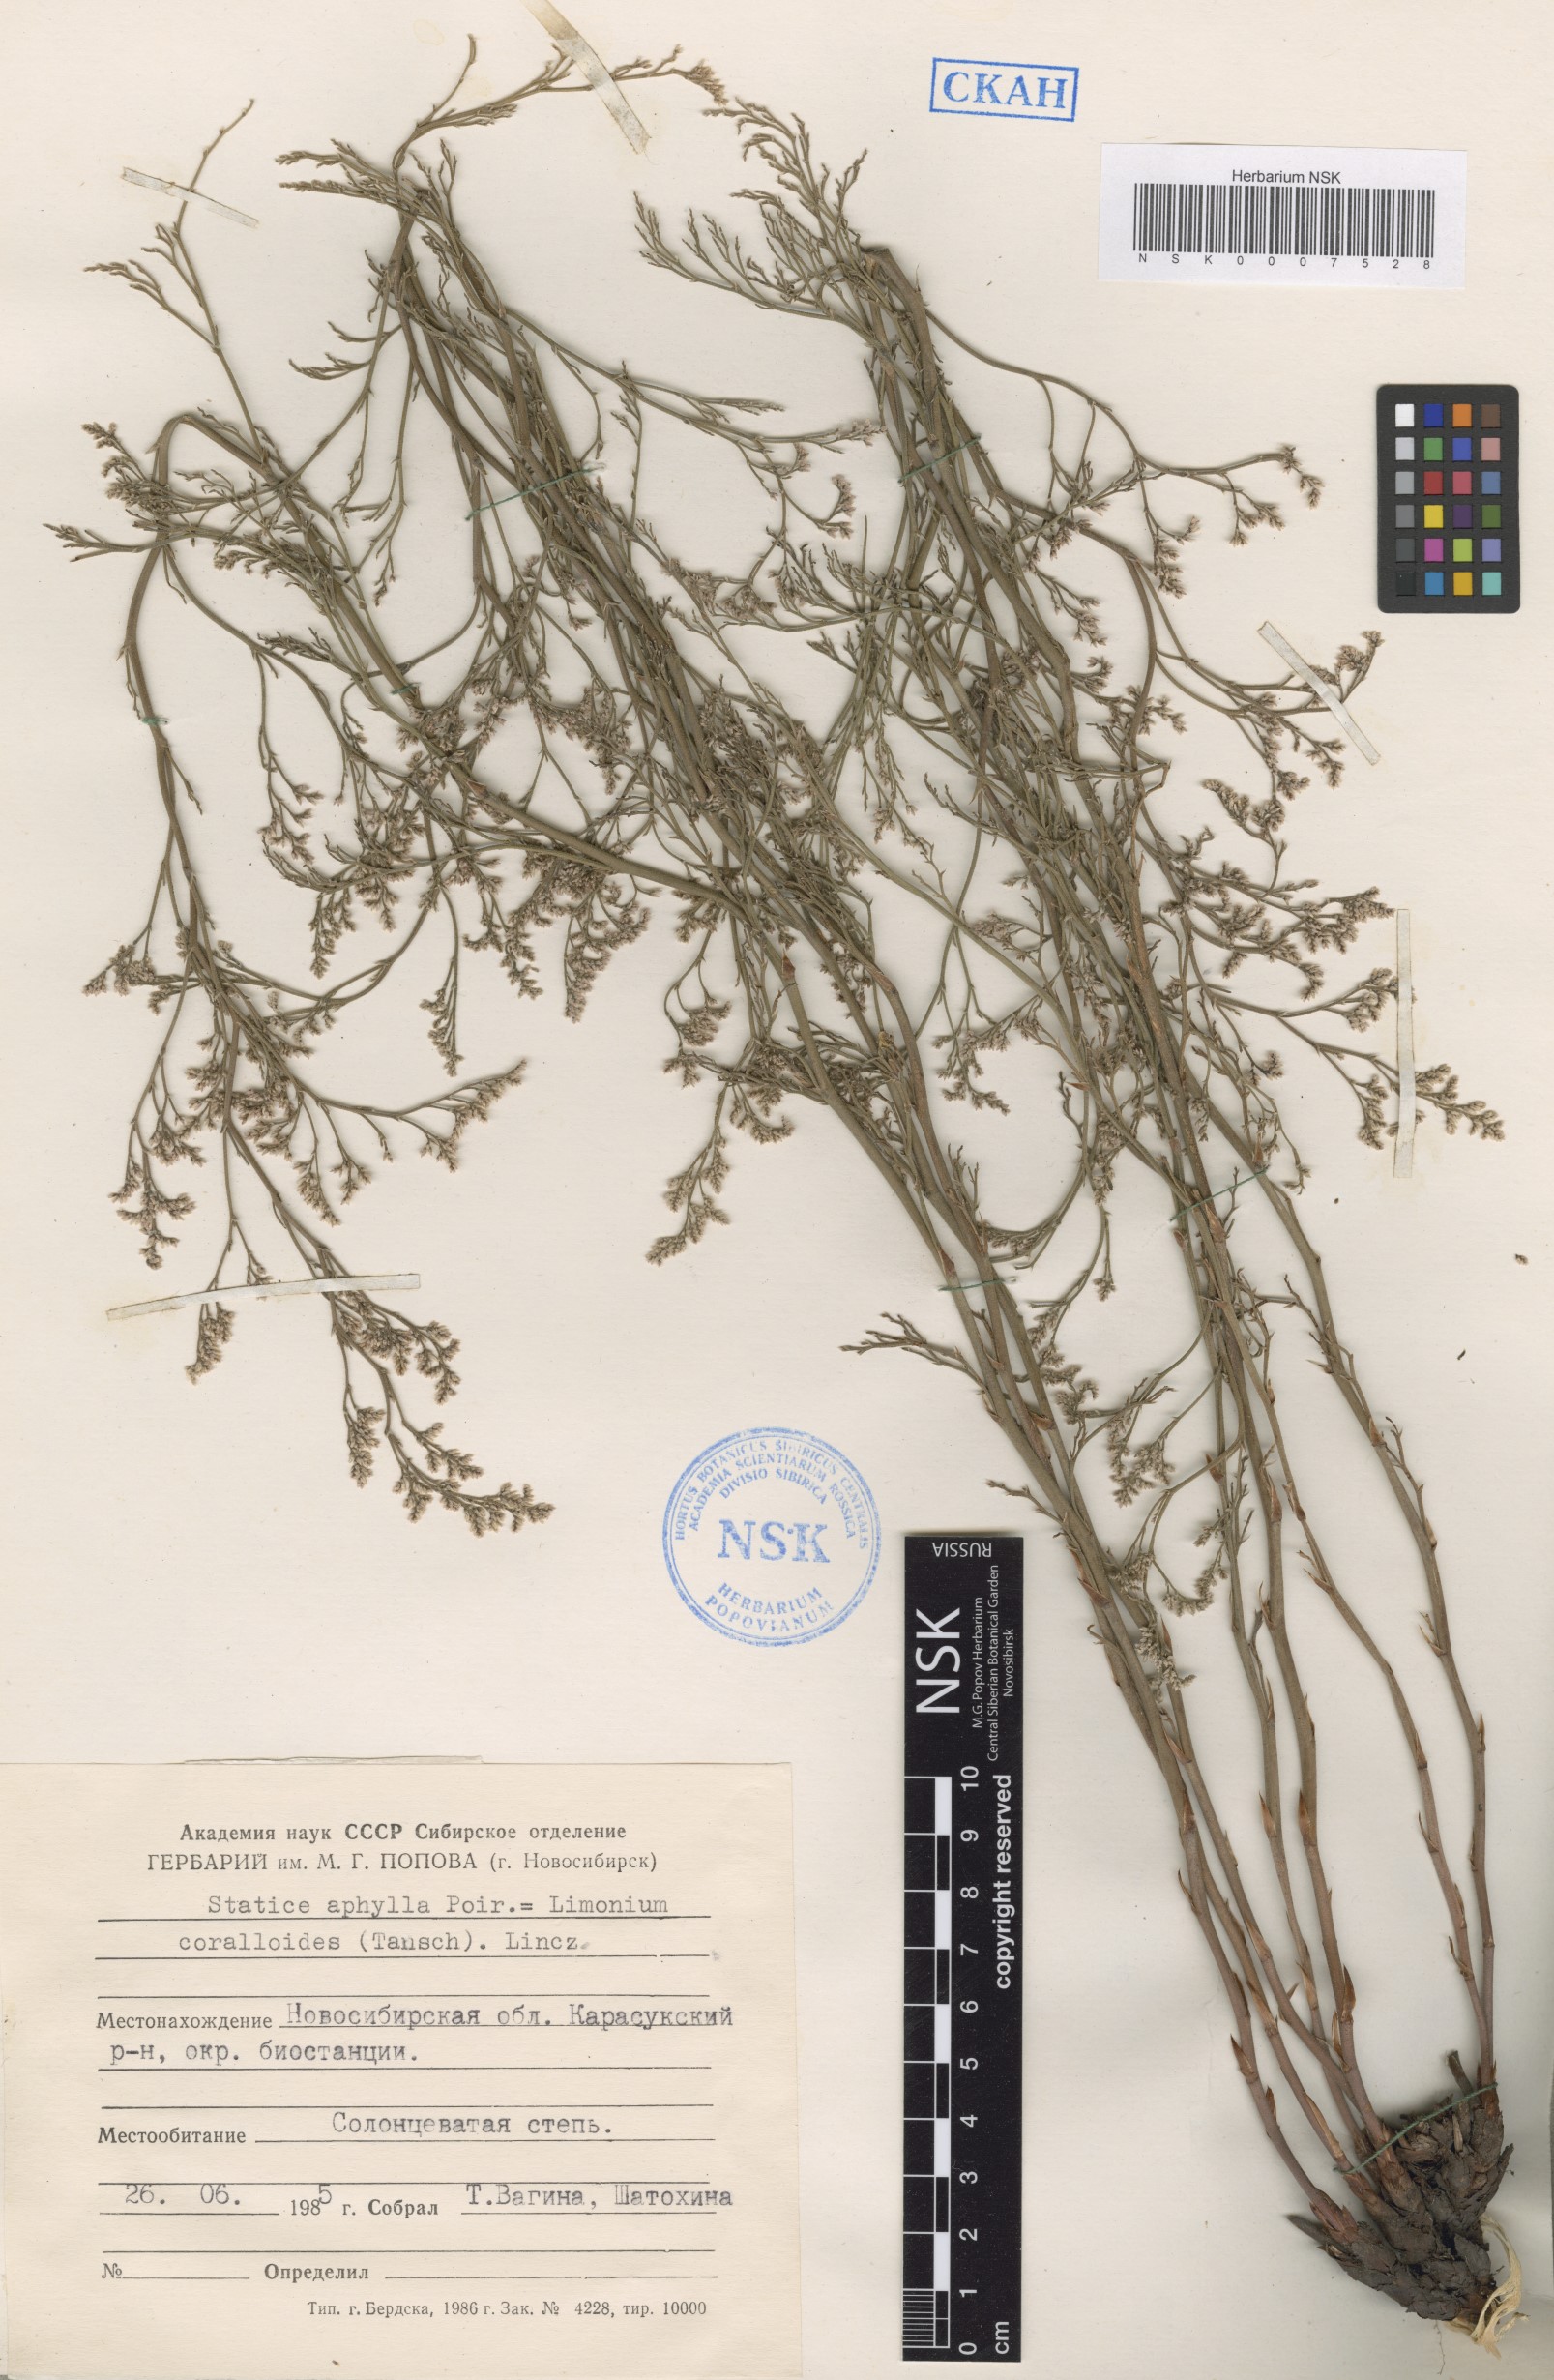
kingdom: Plantae
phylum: Tracheophyta
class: Magnoliopsida
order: Caryophyllales
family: Plumbaginaceae
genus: Limonium
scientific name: Limonium coralloides
